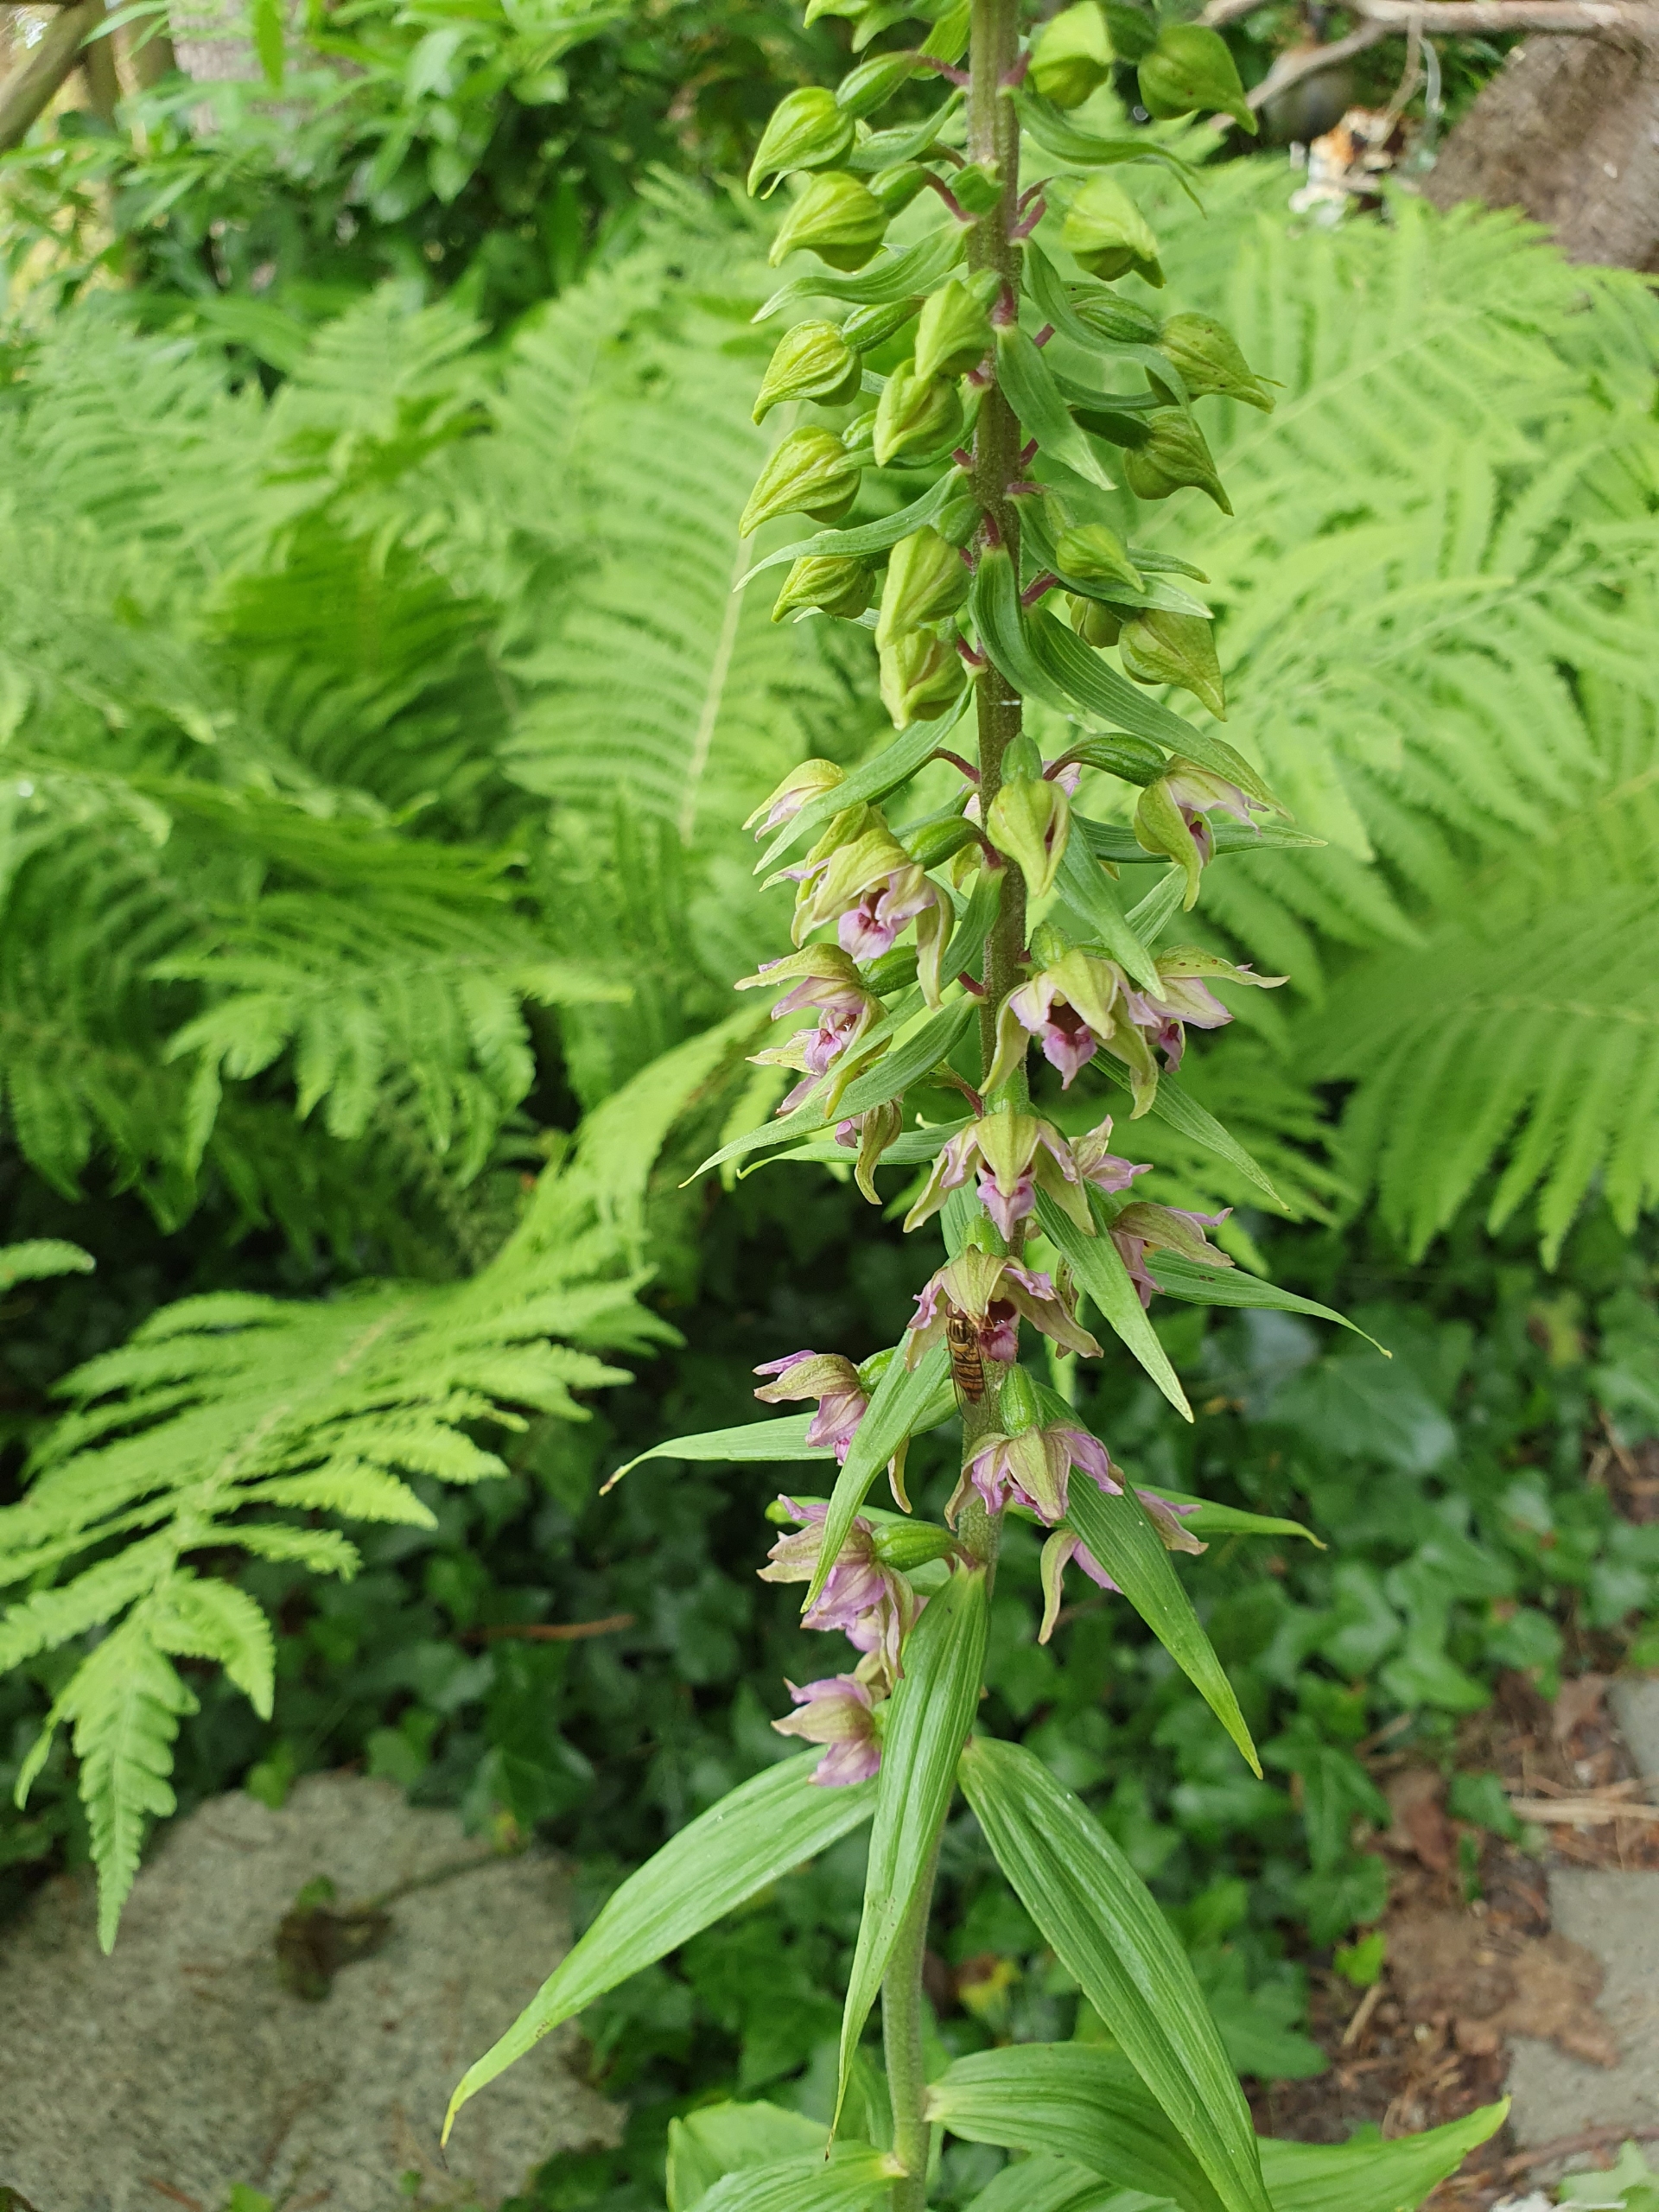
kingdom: Plantae
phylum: Tracheophyta
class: Liliopsida
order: Asparagales
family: Orchidaceae
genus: Epipactis
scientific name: Epipactis helleborine
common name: Skov-hullæbe
